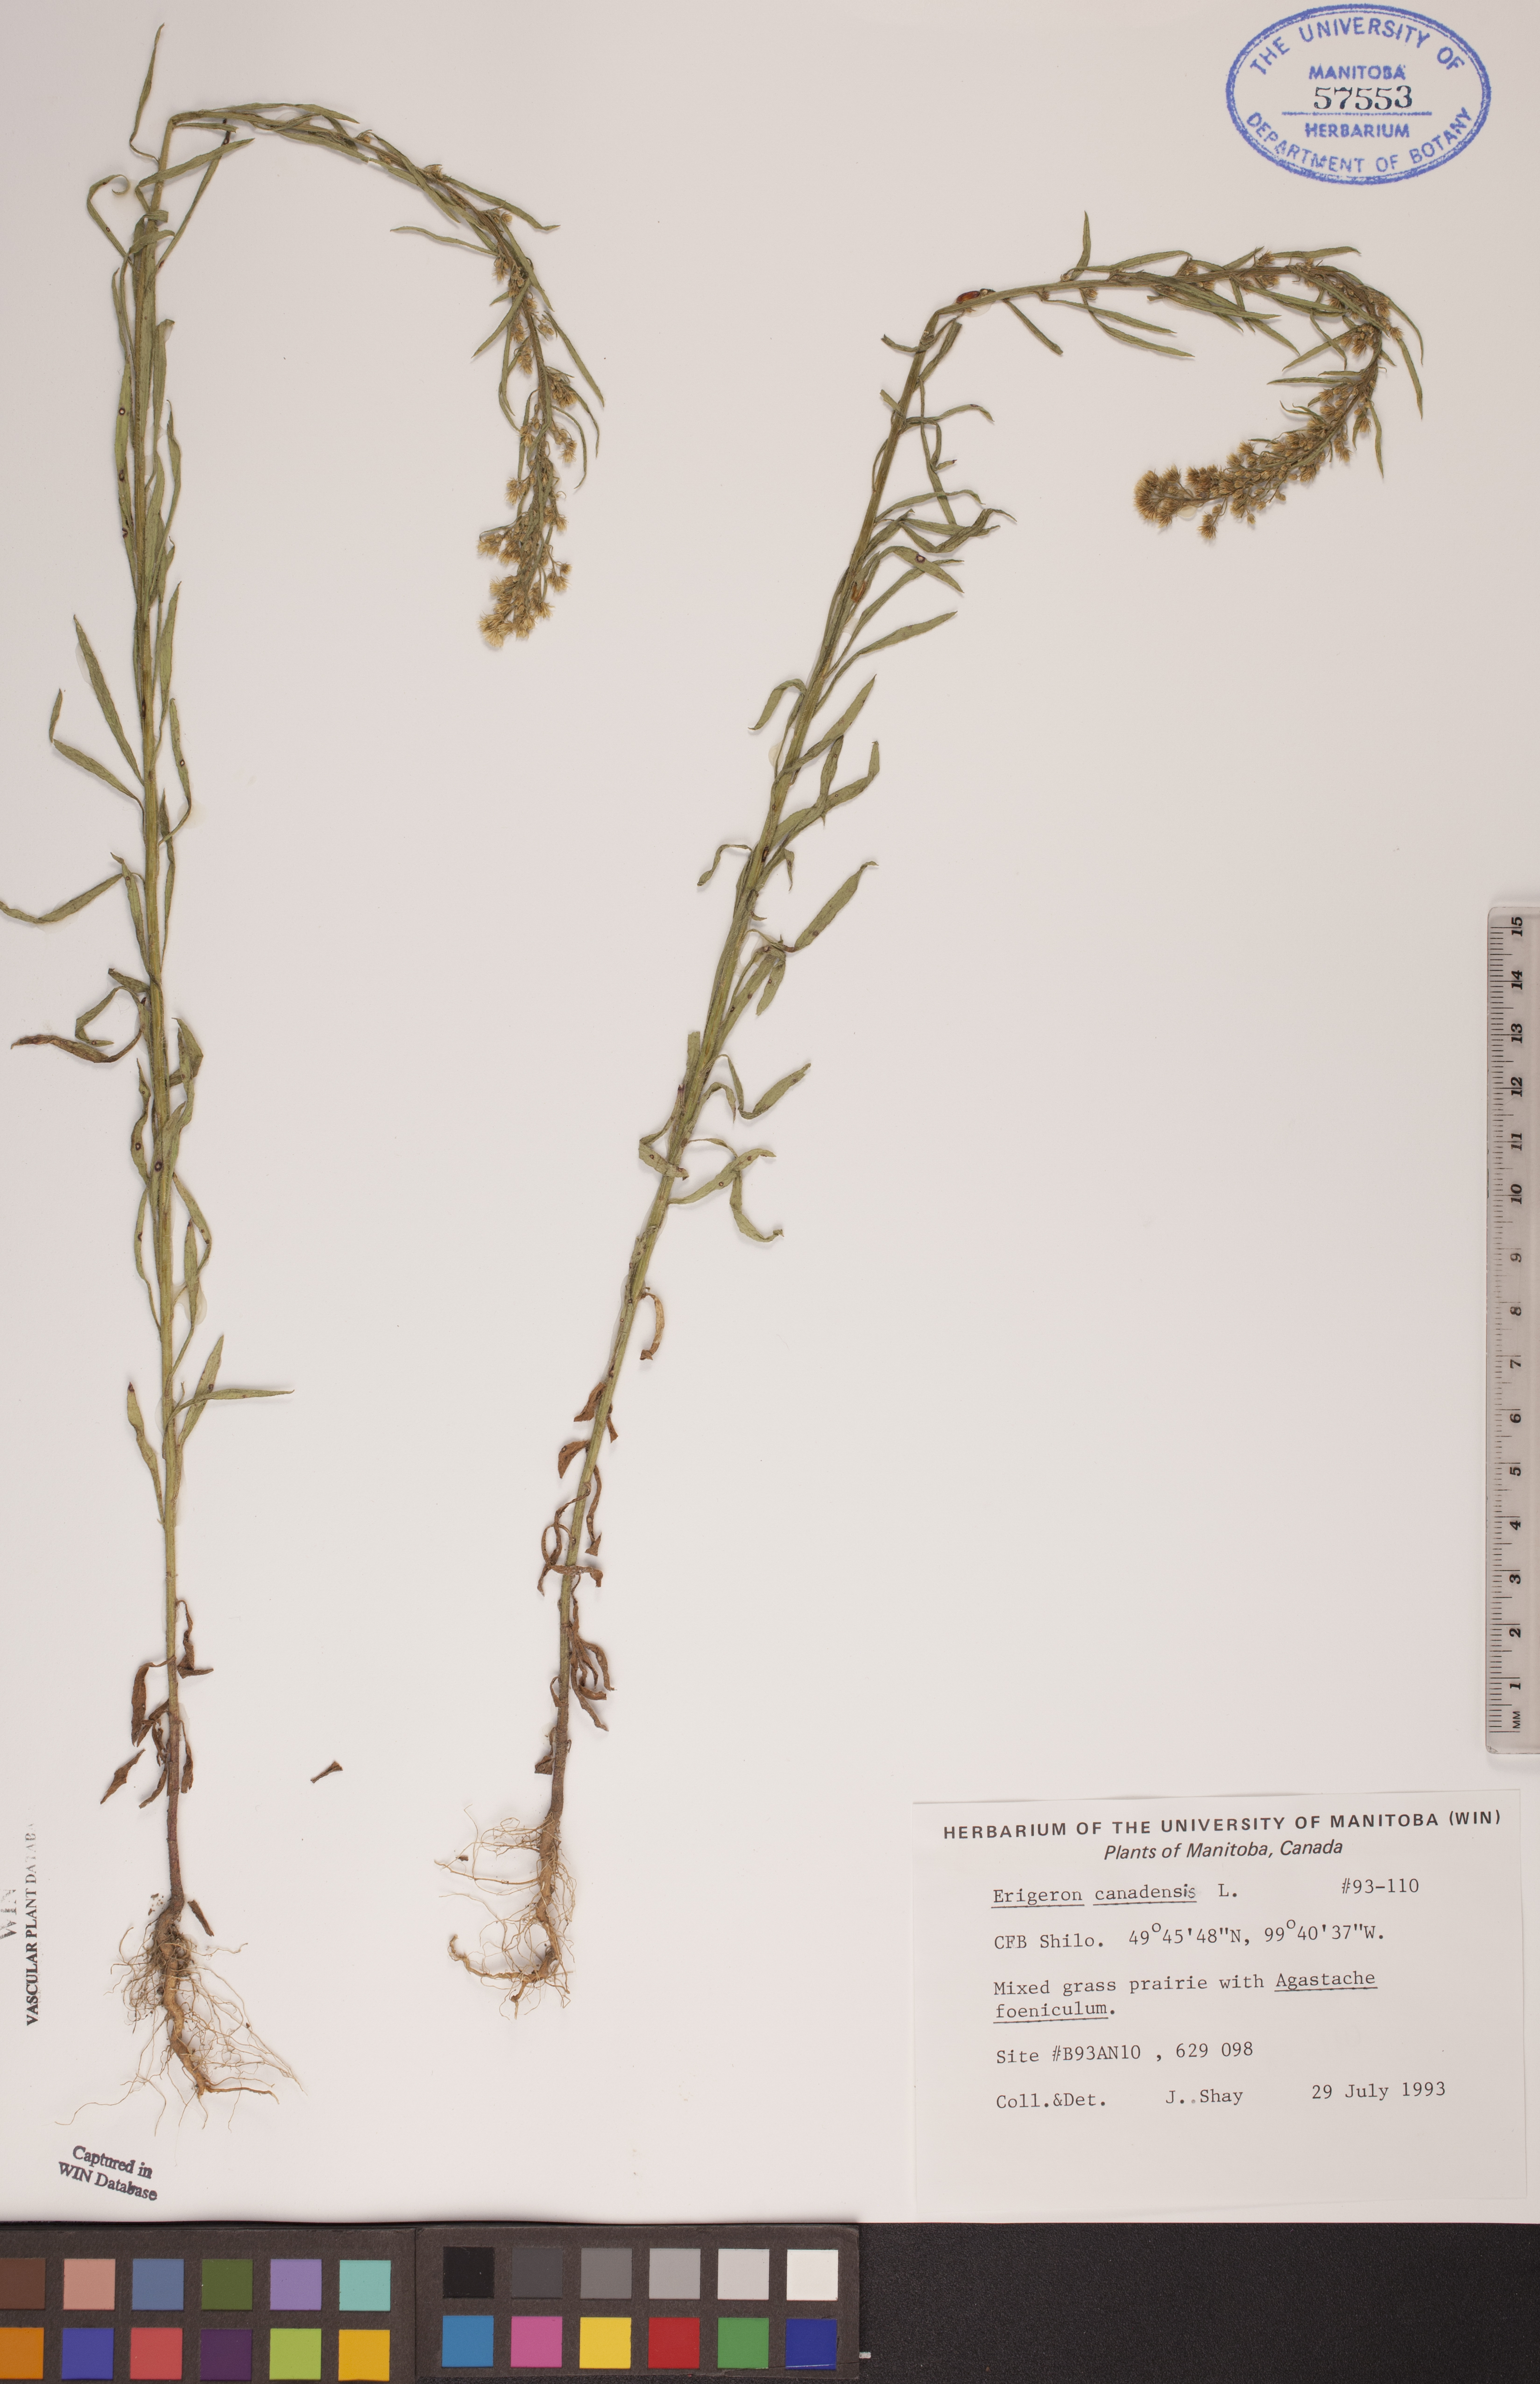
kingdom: Plantae
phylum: Tracheophyta
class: Magnoliopsida
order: Asterales
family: Asteraceae
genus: Erigeron
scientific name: Erigeron canadensis
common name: Canadian fleabane
